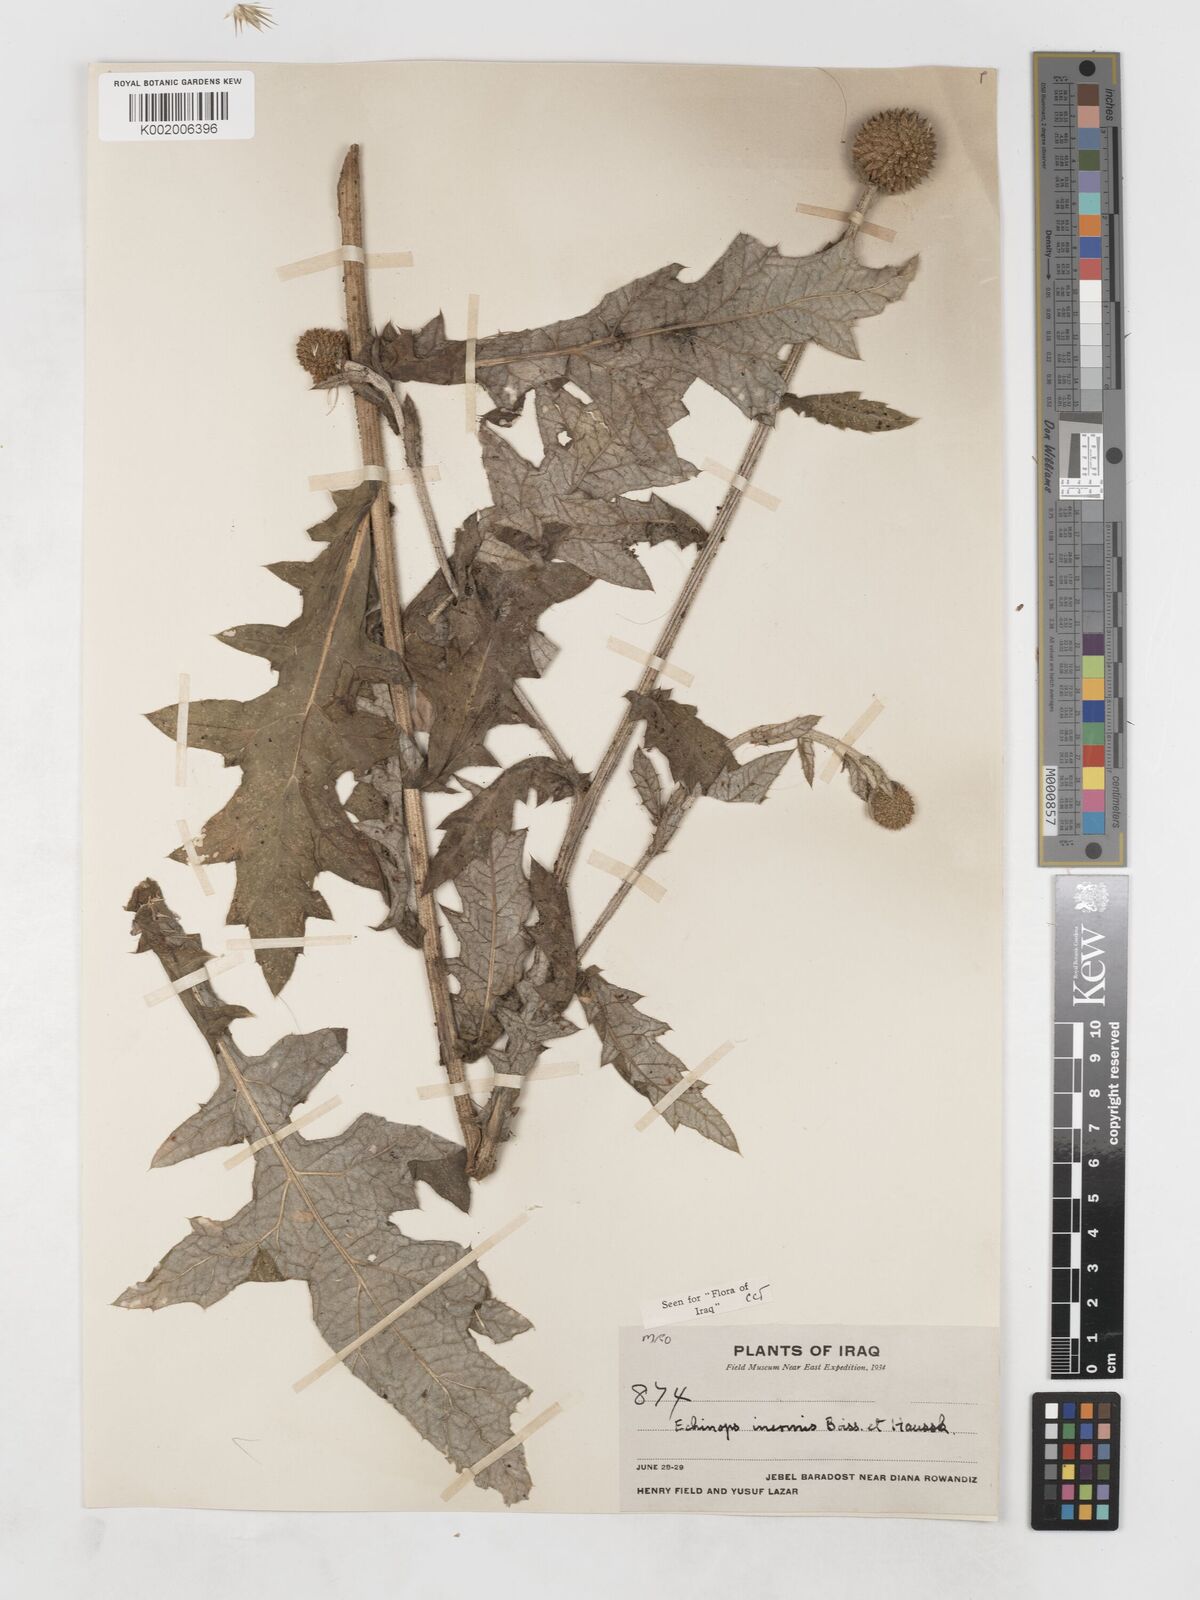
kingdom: Plantae
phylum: Tracheophyta
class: Magnoliopsida
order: Asterales
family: Asteraceae
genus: Echinops
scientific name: Echinops inermis
